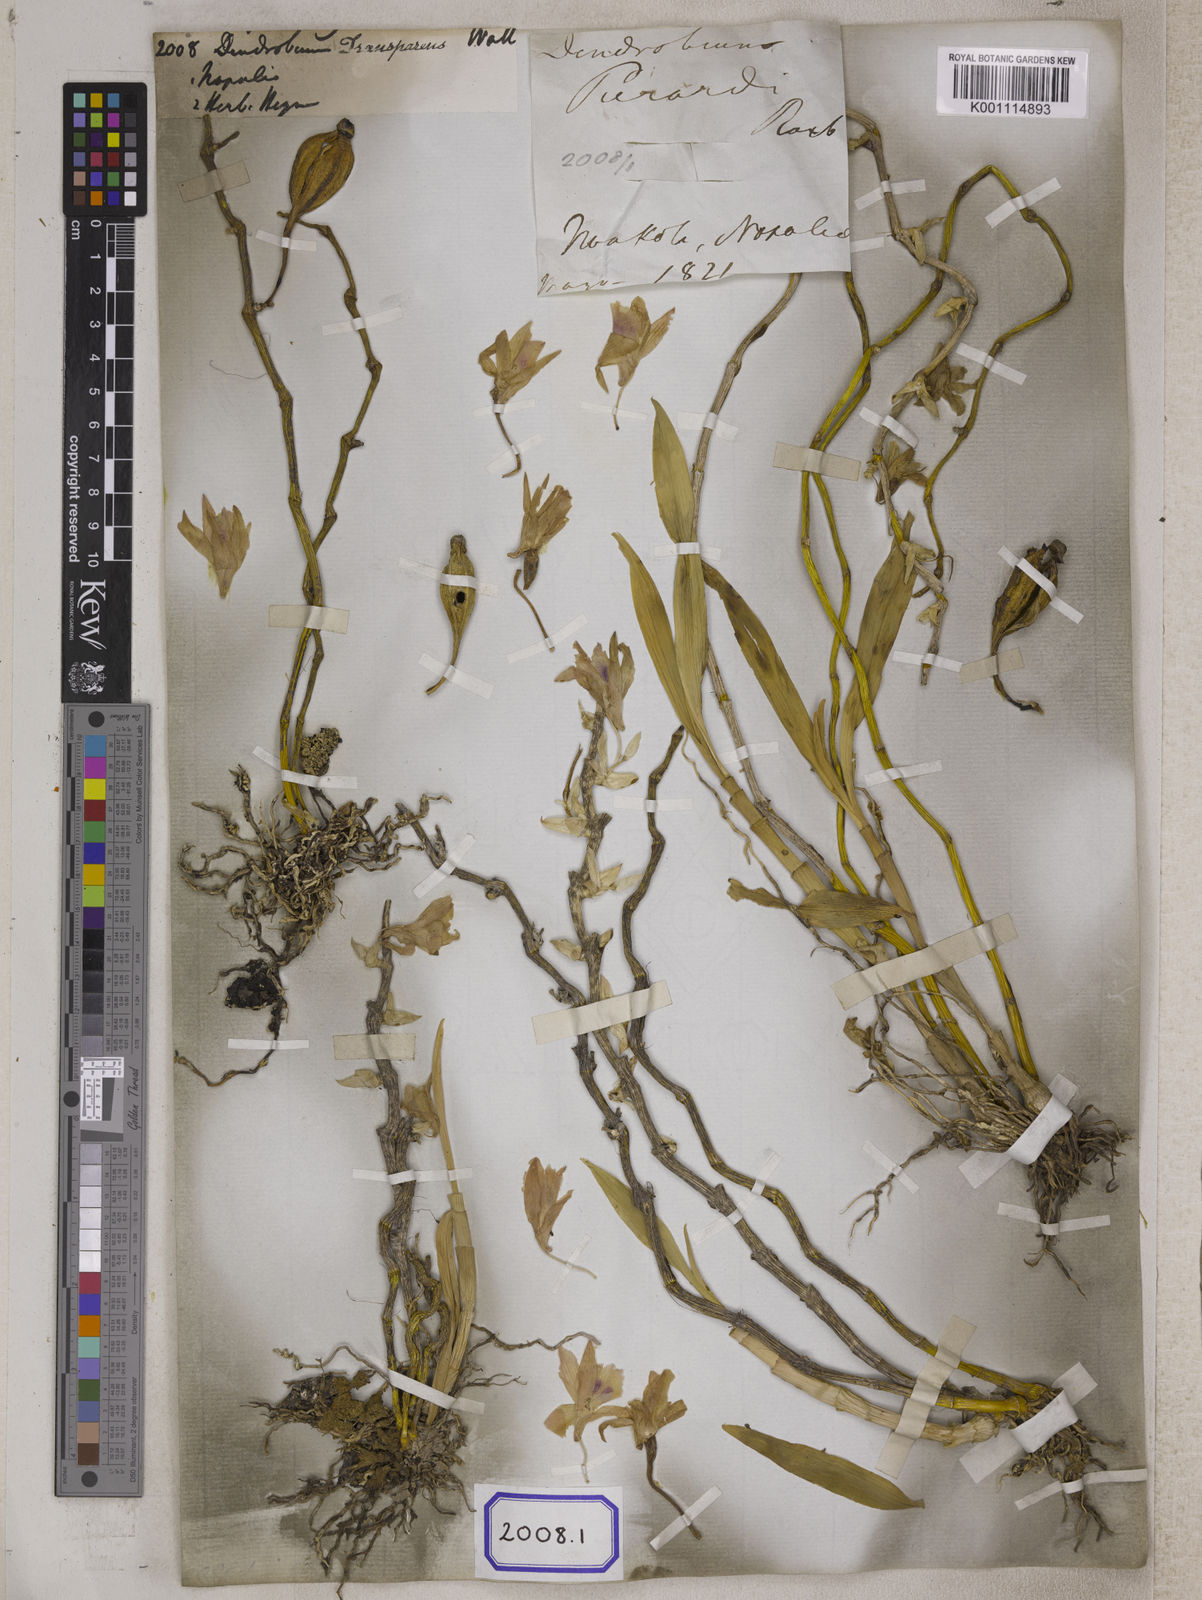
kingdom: Plantae
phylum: Tracheophyta
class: Liliopsida
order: Asparagales
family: Orchidaceae
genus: Dendrobium
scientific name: Dendrobium
